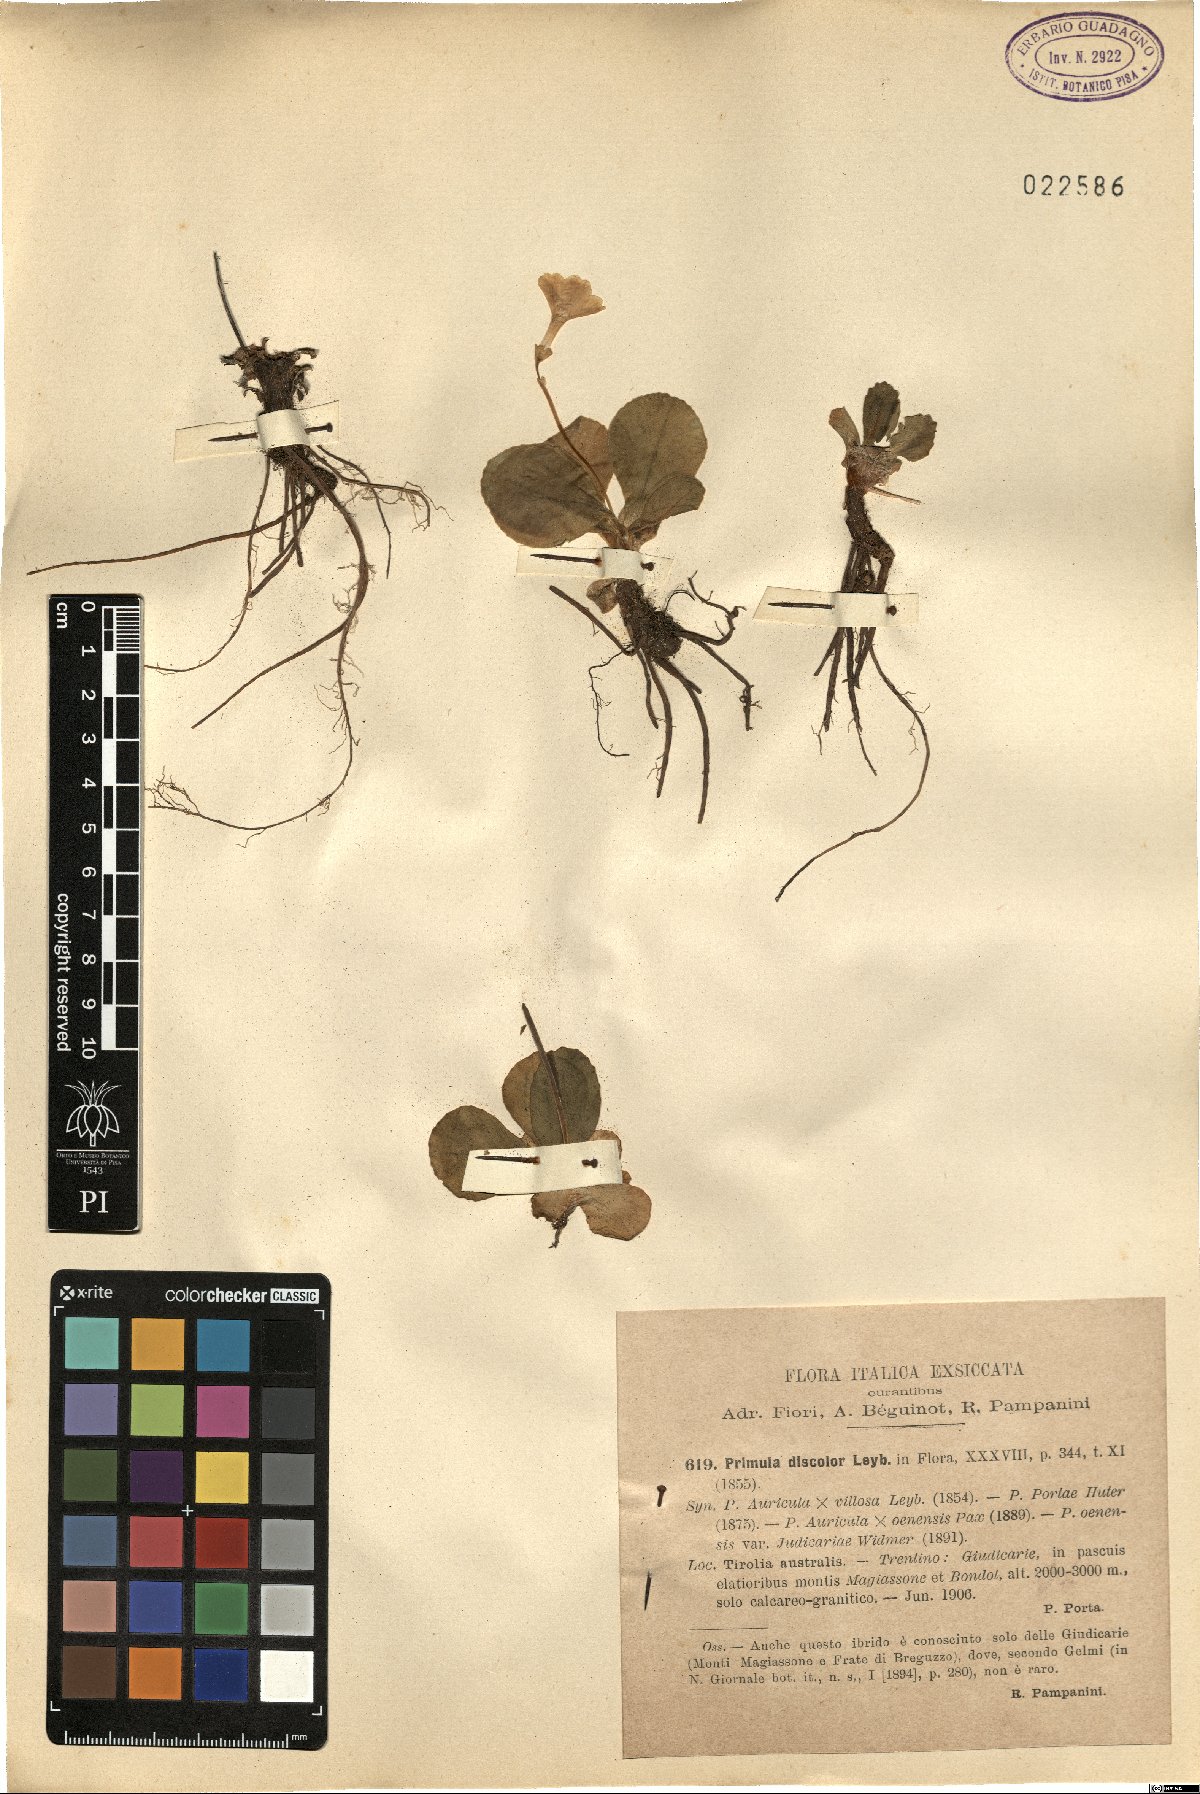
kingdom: Plantae
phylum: Tracheophyta
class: Magnoliopsida
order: Ericales
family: Primulaceae
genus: Primula
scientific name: Primula veris
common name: Cowslip
